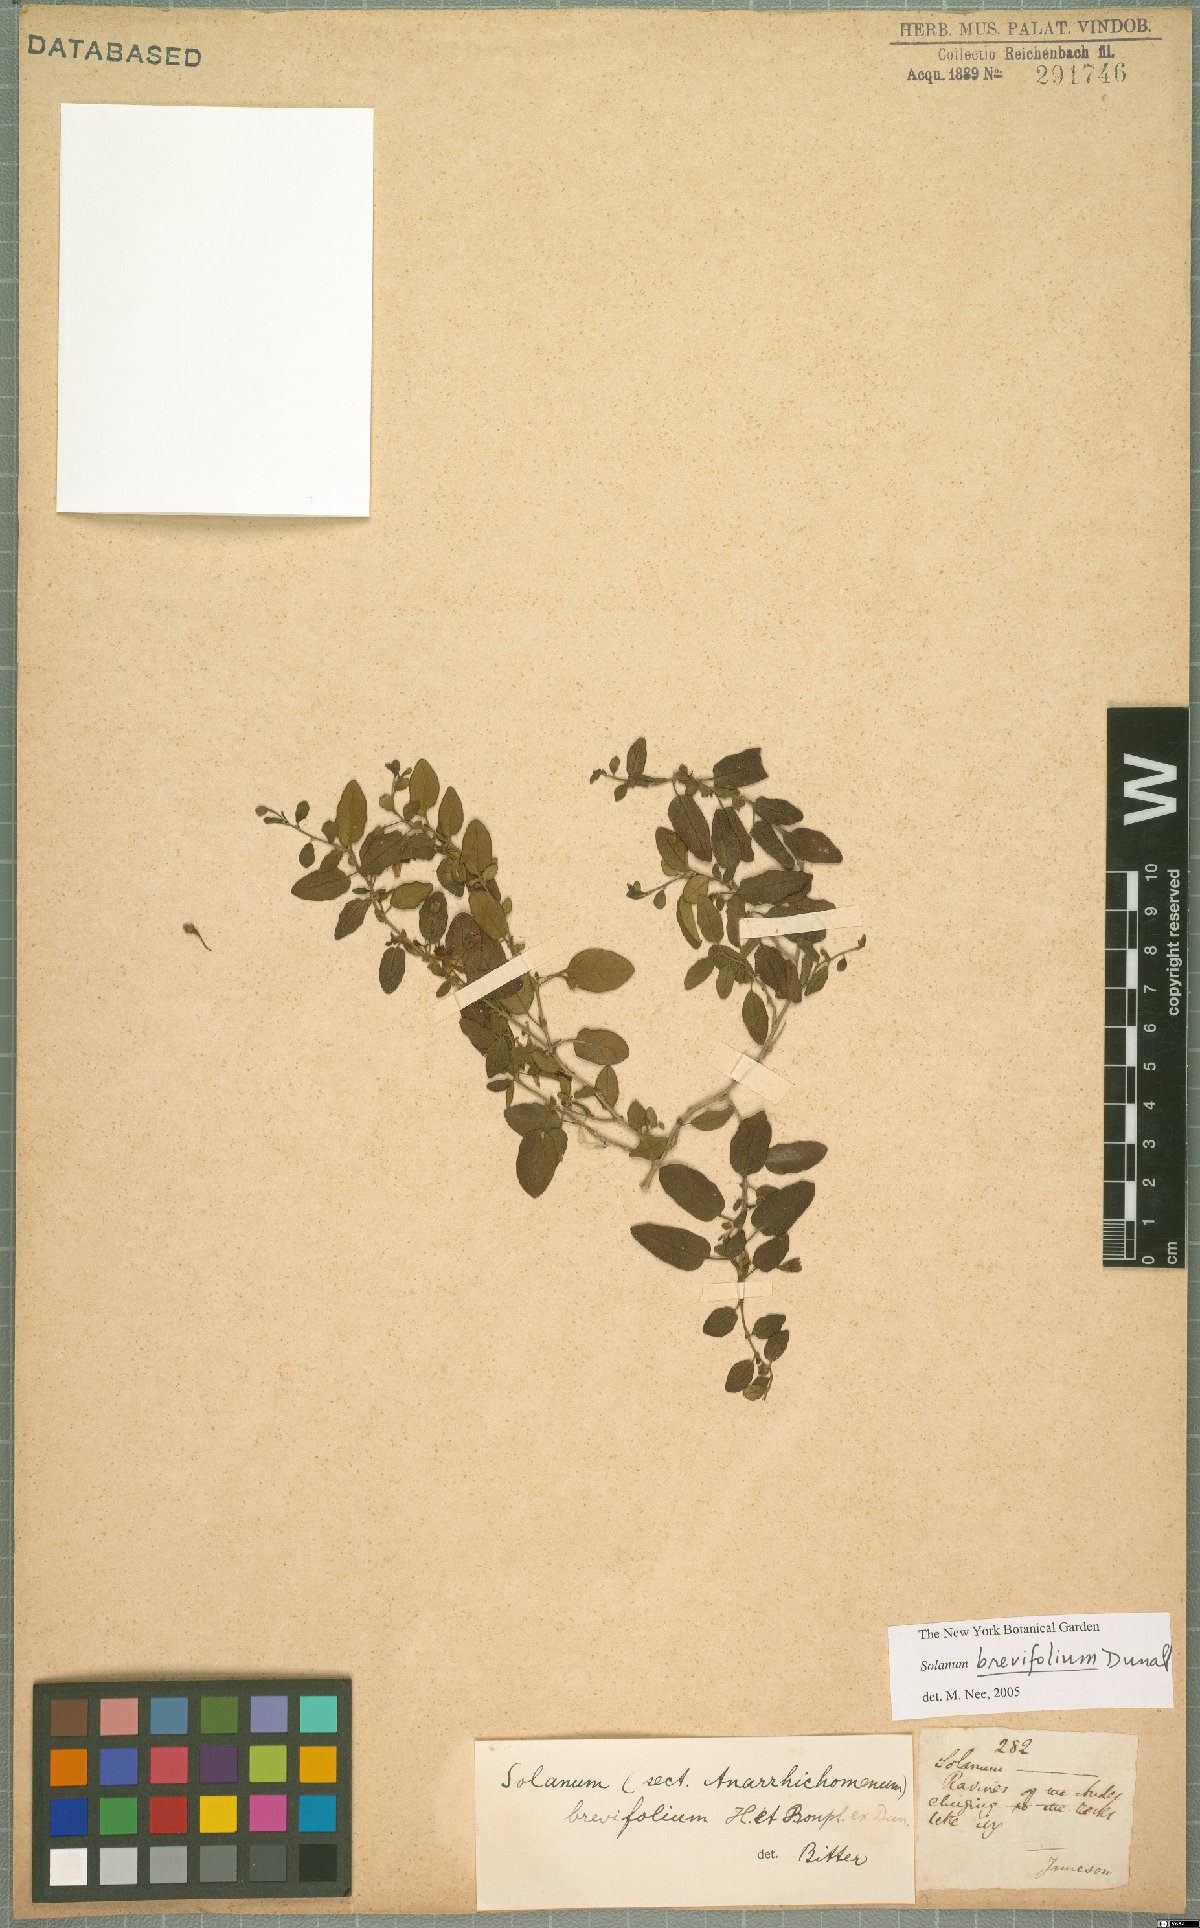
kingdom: Plantae
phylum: Tracheophyta
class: Magnoliopsida
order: Solanales
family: Solanaceae
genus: Solanum
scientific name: Solanum brevifolium
